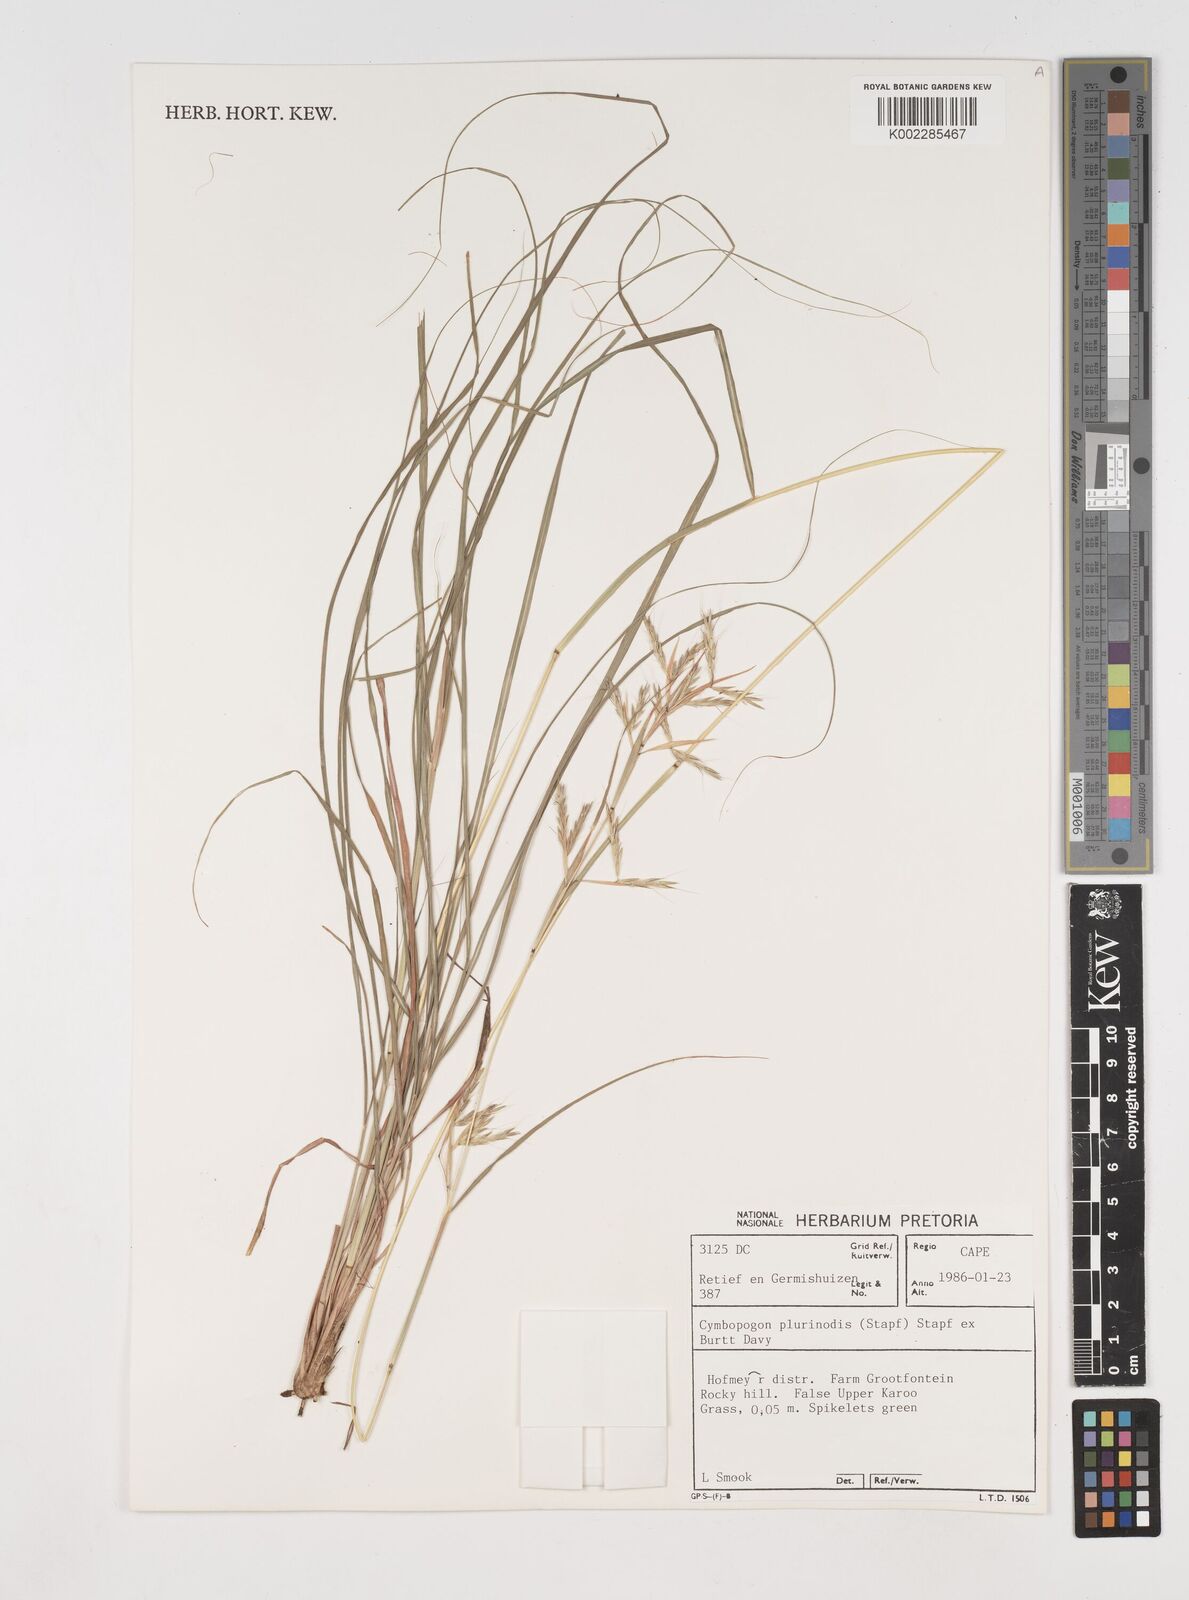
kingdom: Plantae
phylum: Tracheophyta
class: Liliopsida
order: Poales
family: Poaceae
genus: Cymbopogon
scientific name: Cymbopogon pospischilii
